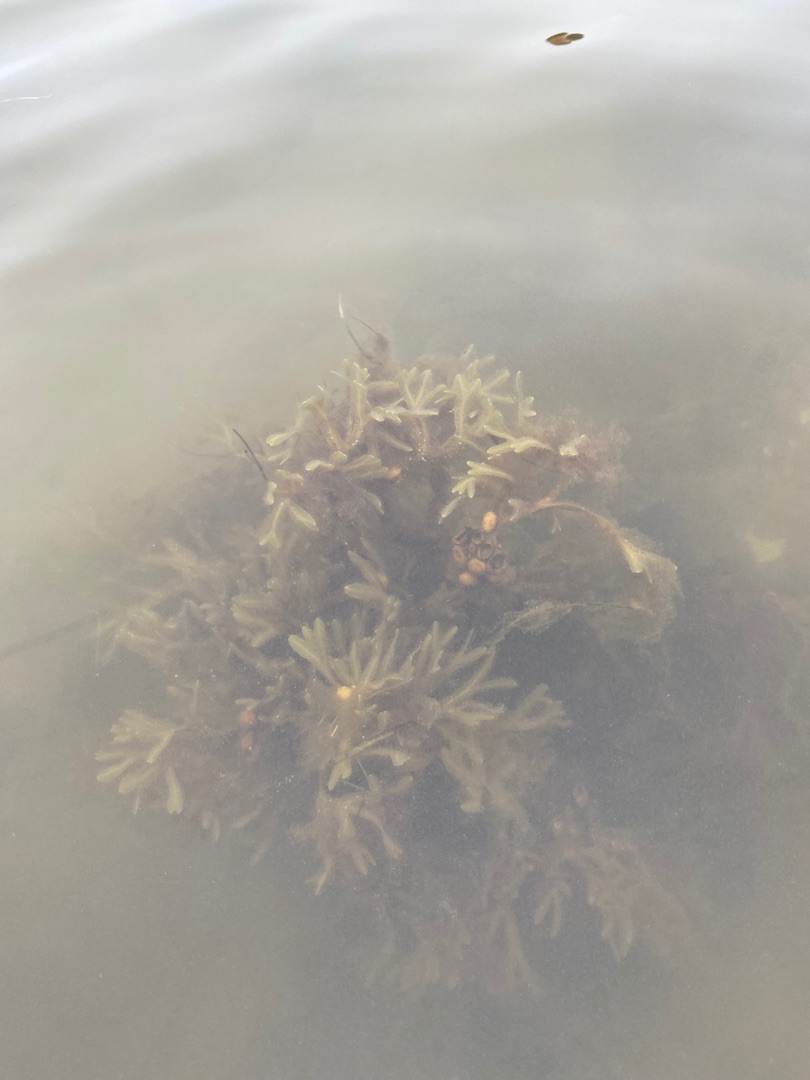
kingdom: Chromista
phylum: Ochrophyta
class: Phaeophyceae
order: Fucales
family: Fucaceae
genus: Fucus
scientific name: Fucus vesiculosus
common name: Blæretang
